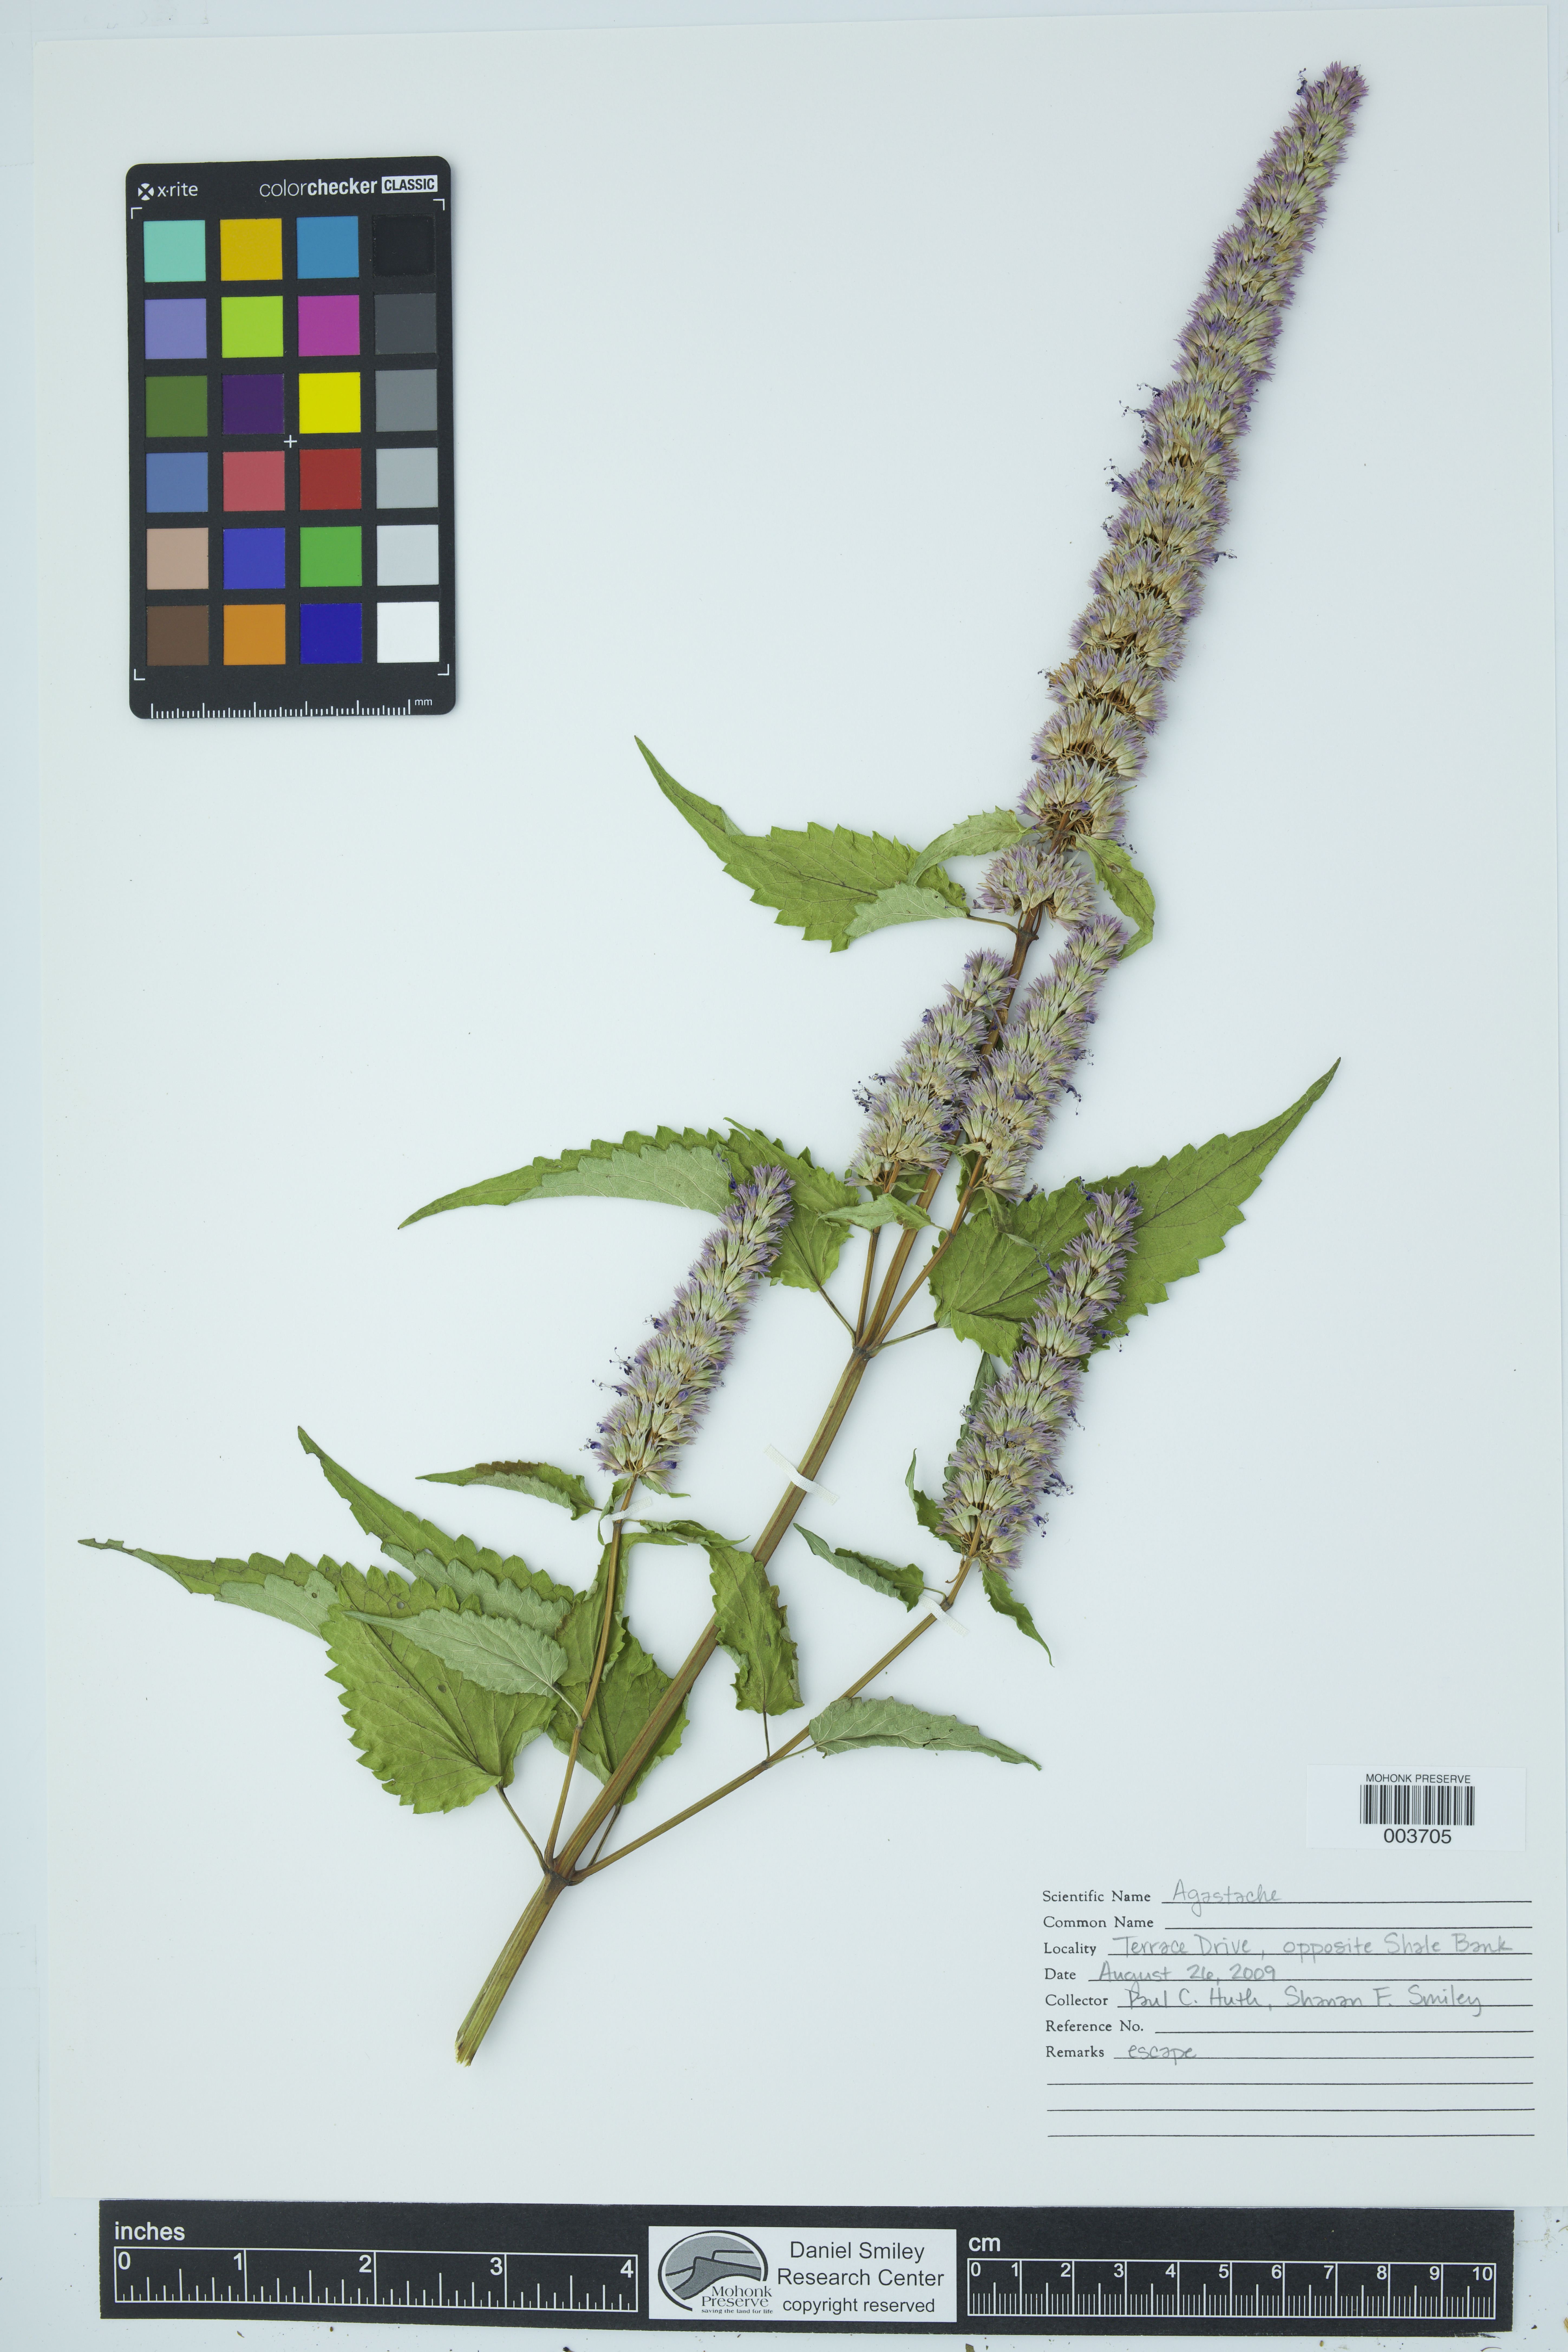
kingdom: Plantae
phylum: Tracheophyta
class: Magnoliopsida
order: Lamiales
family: Lamiaceae
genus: Agastache
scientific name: Agastache
